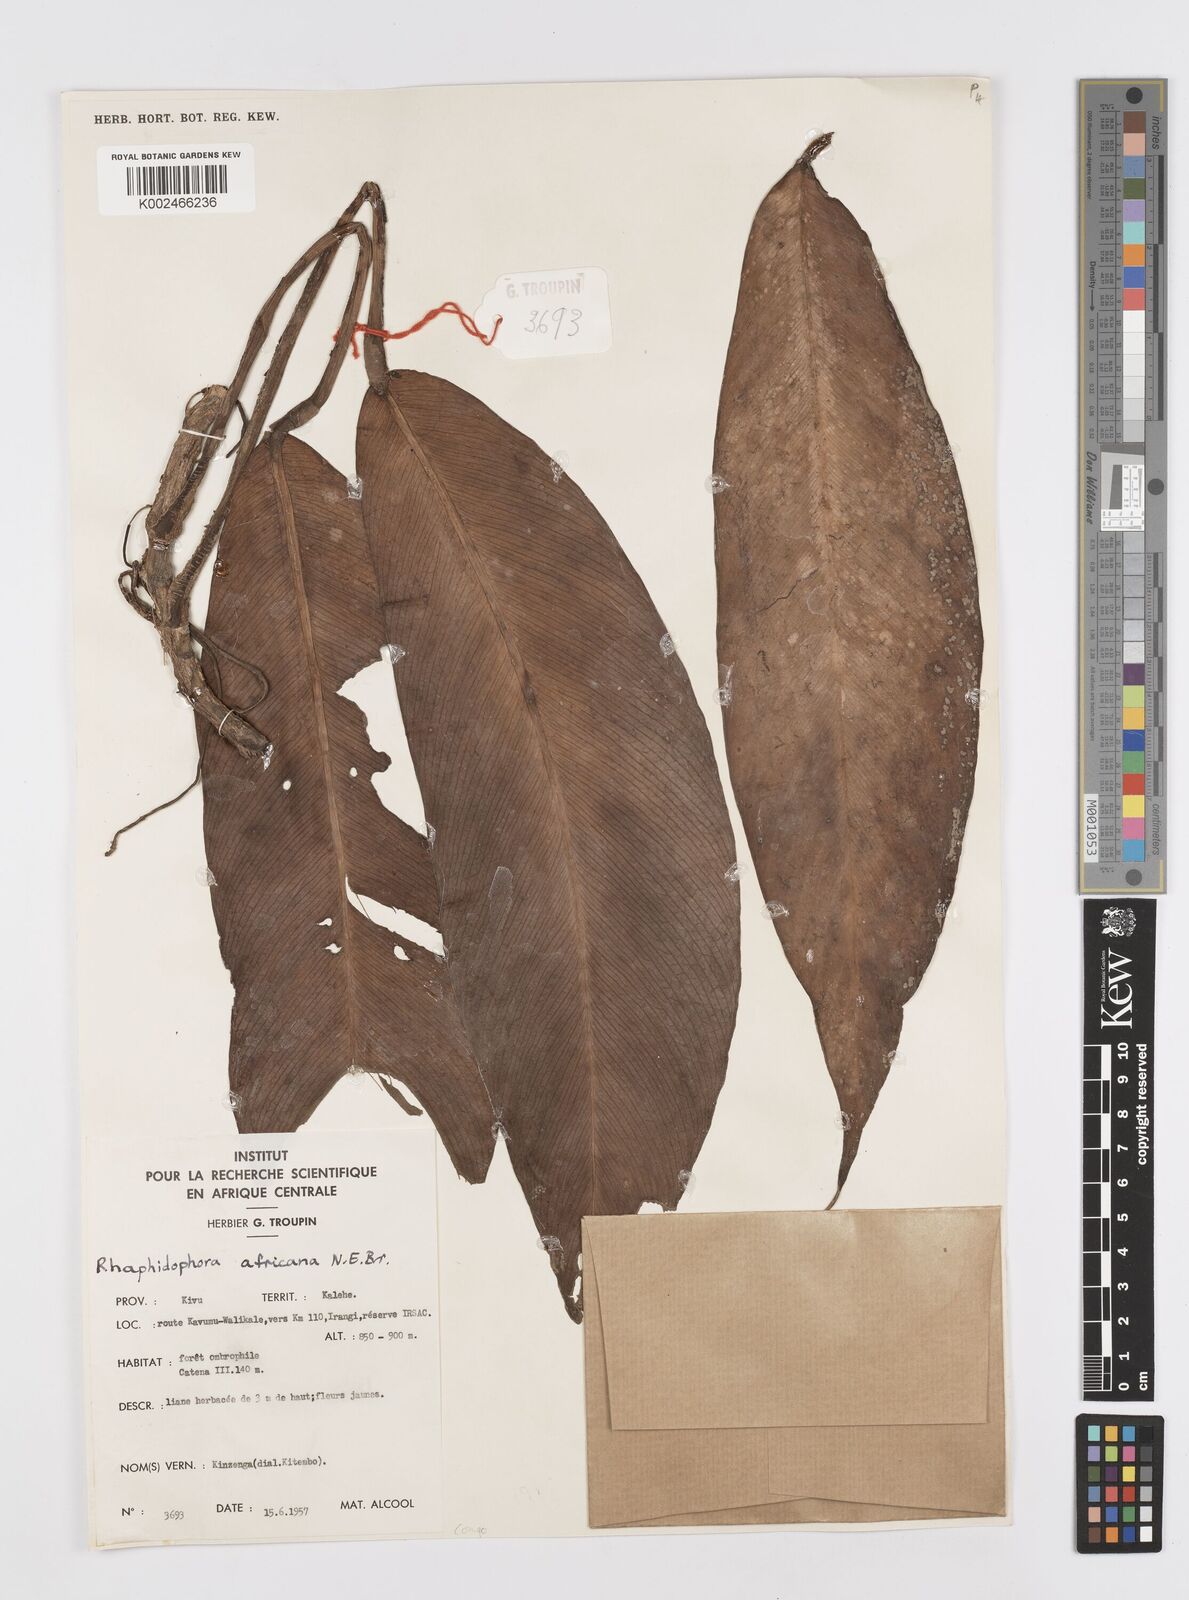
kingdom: Plantae
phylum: Tracheophyta
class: Liliopsida
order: Alismatales
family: Araceae
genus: Rhaphidophora
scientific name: Rhaphidophora africana
